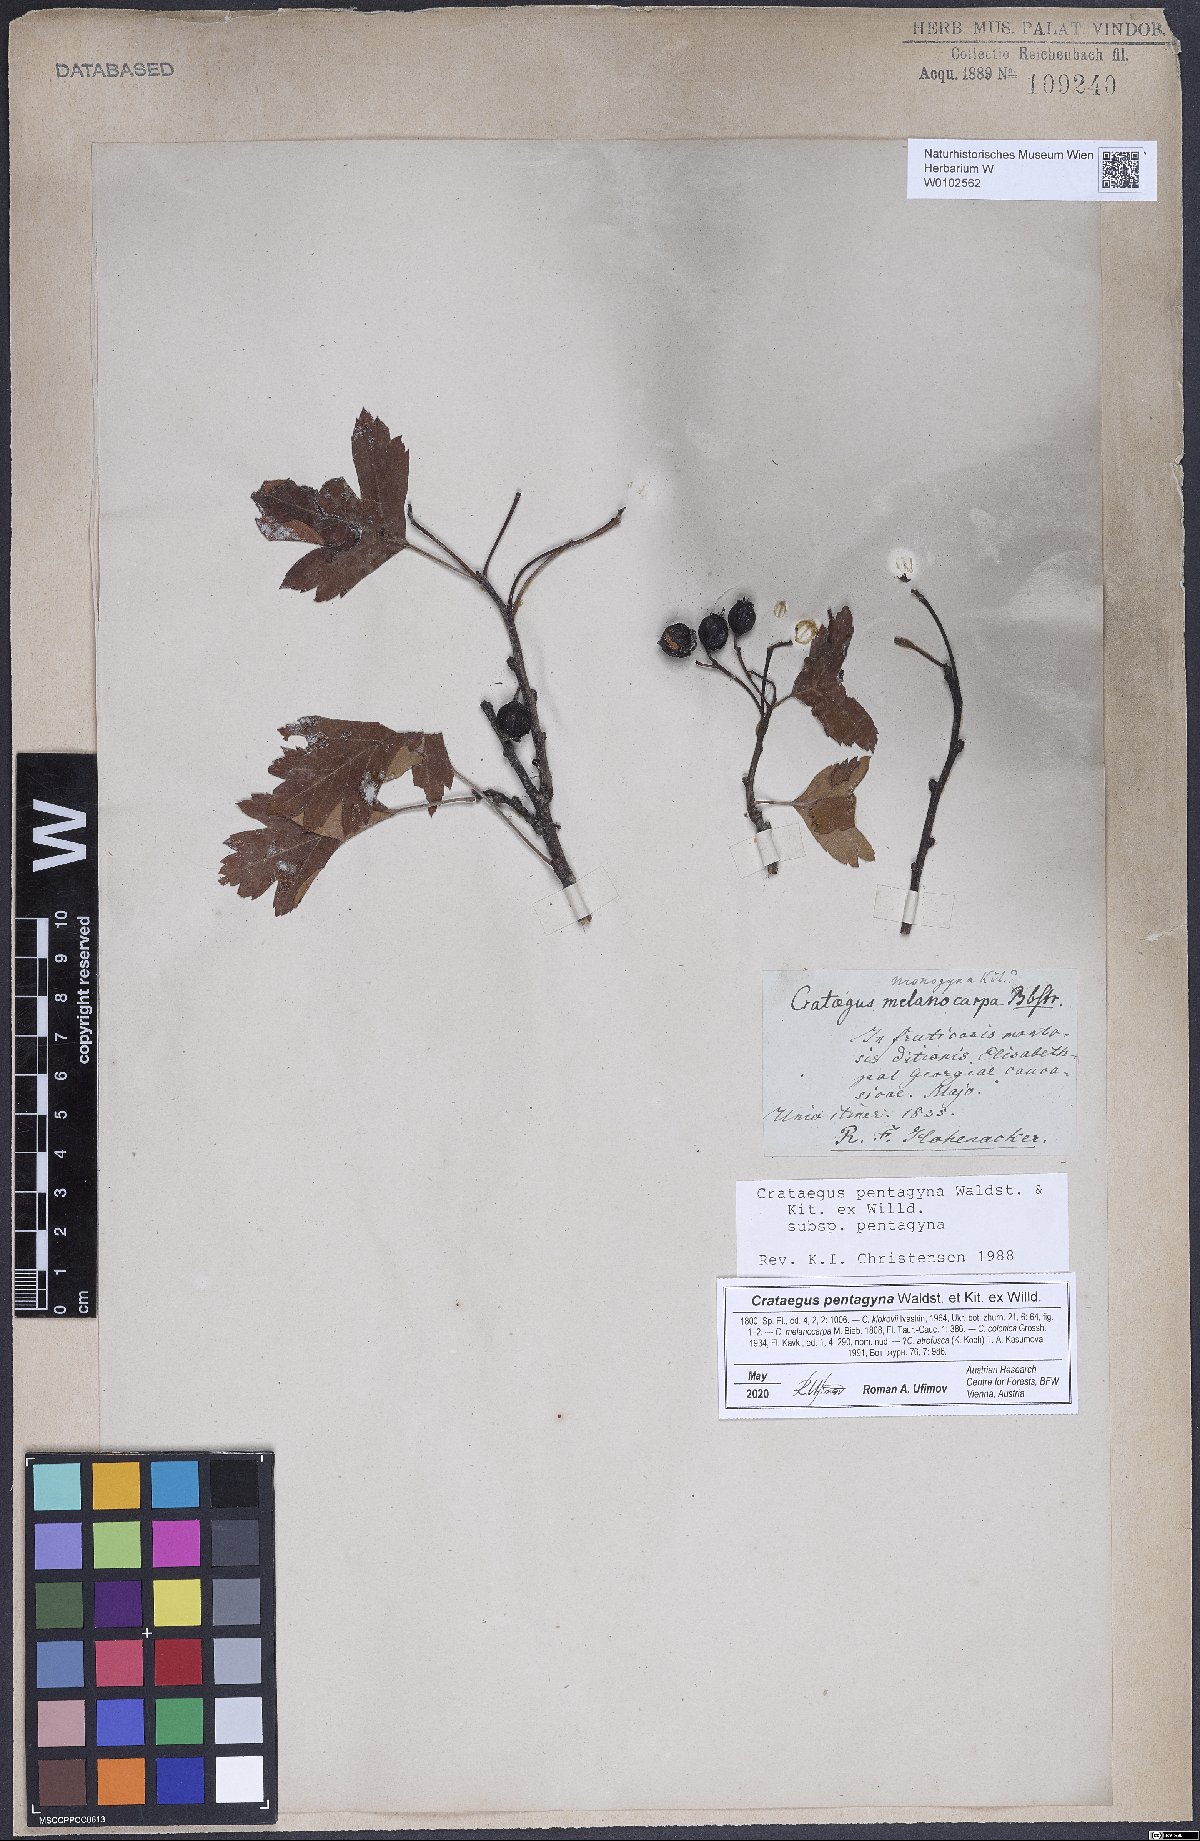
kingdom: Plantae
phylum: Tracheophyta
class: Magnoliopsida
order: Rosales
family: Rosaceae
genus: Crataegus
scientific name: Crataegus pentagyna
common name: Small-flowered black hawthorn
